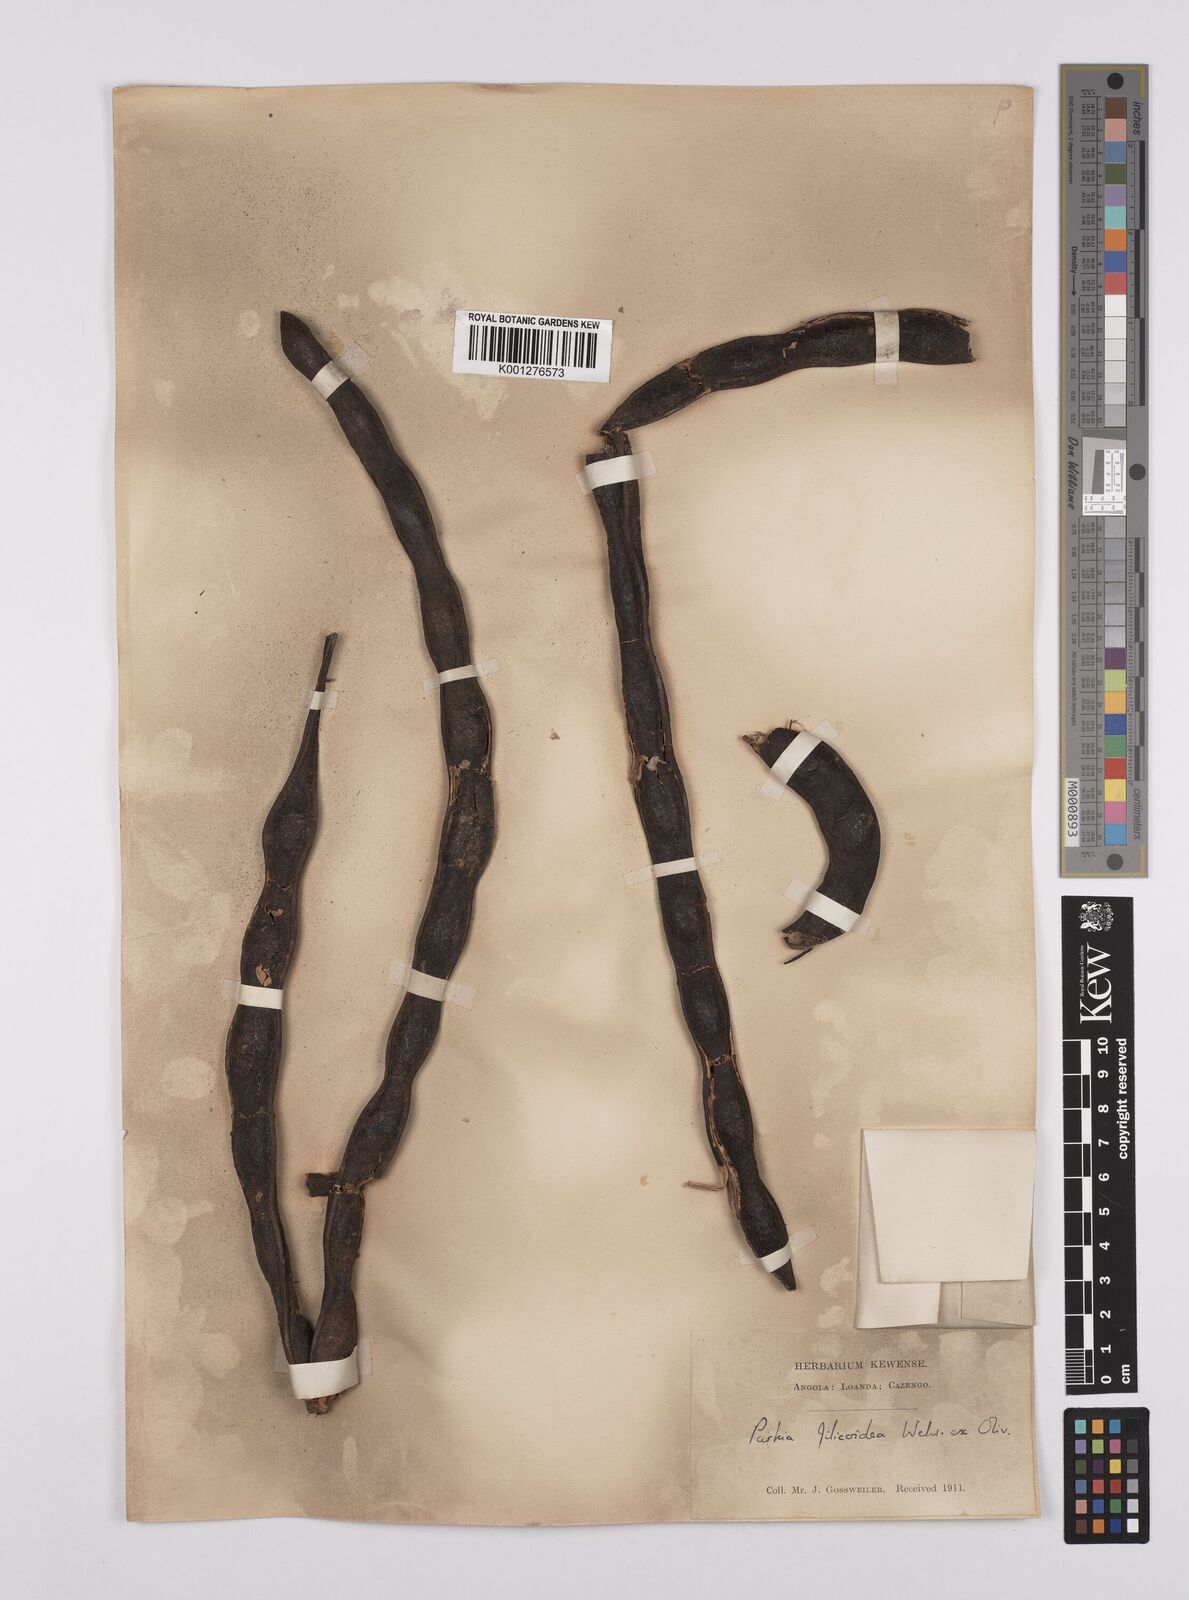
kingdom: Plantae
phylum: Tracheophyta
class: Magnoliopsida
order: Fabales
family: Fabaceae
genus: Parkia
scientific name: Parkia filicoidea
